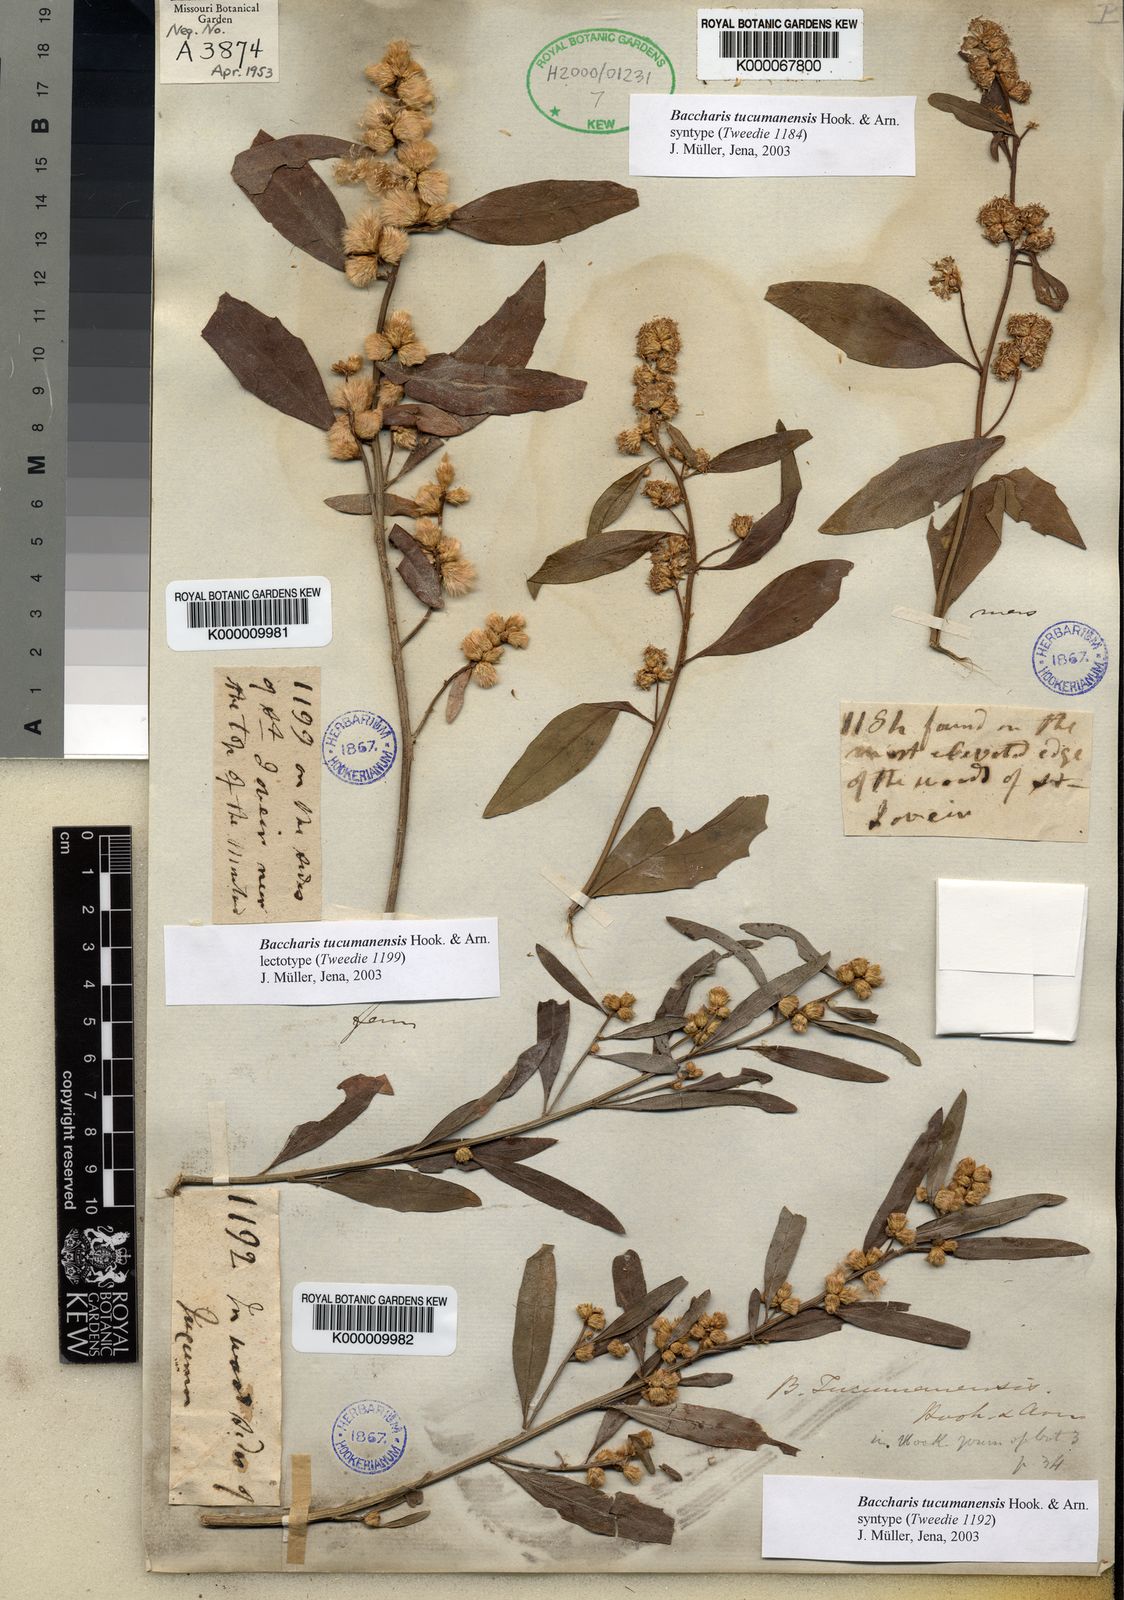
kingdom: Plantae
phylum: Tracheophyta
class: Magnoliopsida
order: Asterales
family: Asteraceae
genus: Baccharis
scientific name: Baccharis tucumanensis
